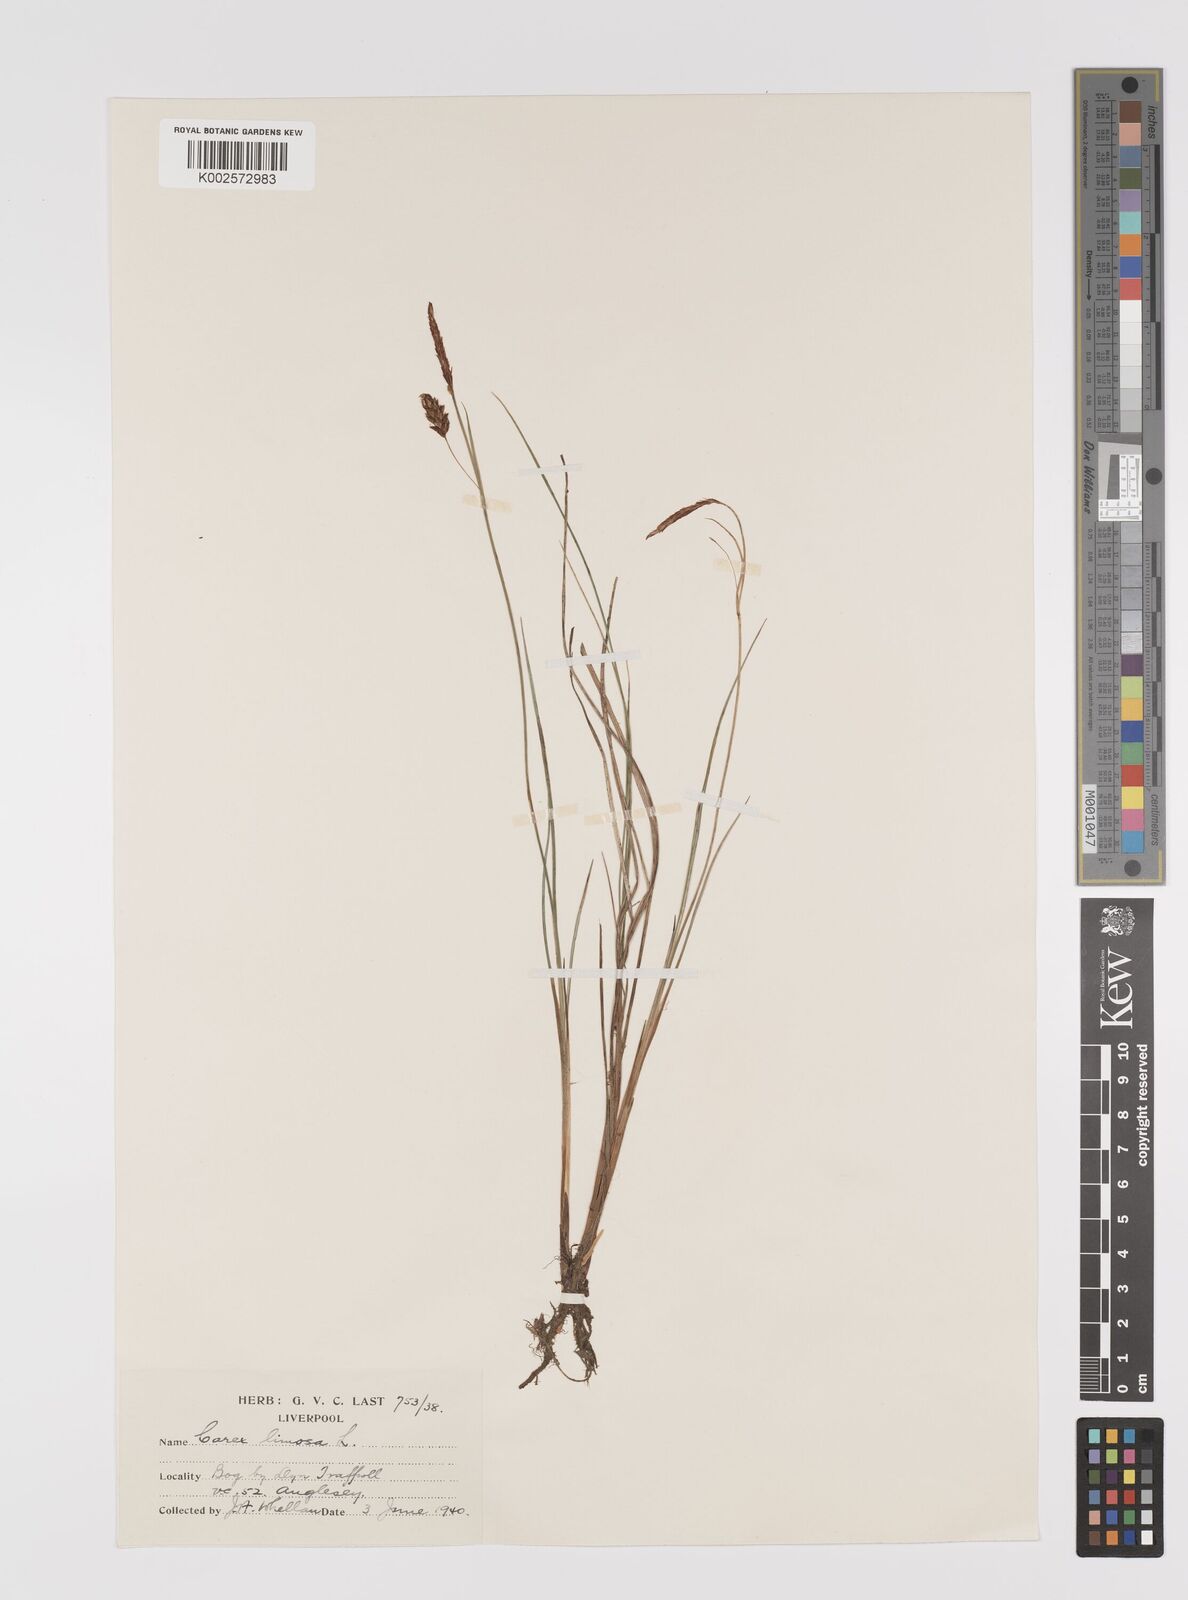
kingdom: Plantae
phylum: Tracheophyta
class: Liliopsida
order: Poales
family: Cyperaceae
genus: Carex
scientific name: Carex limosa
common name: Bog sedge
